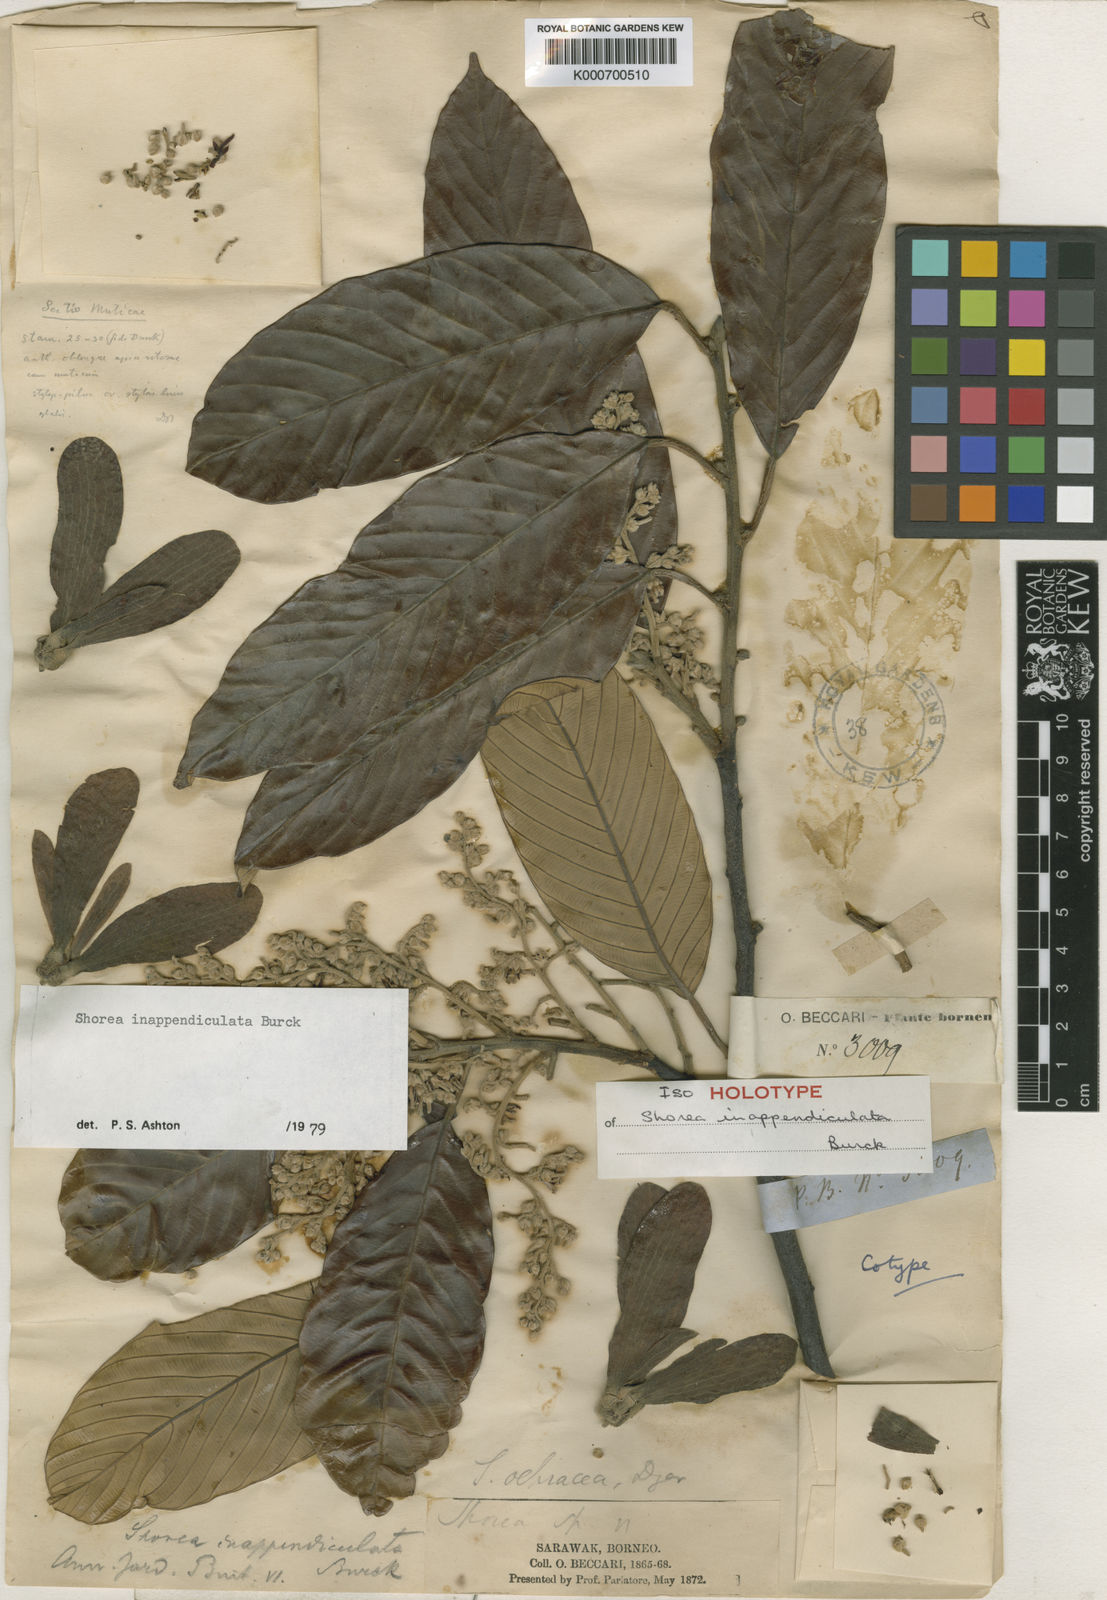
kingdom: Plantae
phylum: Tracheophyta
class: Magnoliopsida
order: Malvales
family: Dipterocarpaceae
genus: Shorea
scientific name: Shorea inappendiculata
